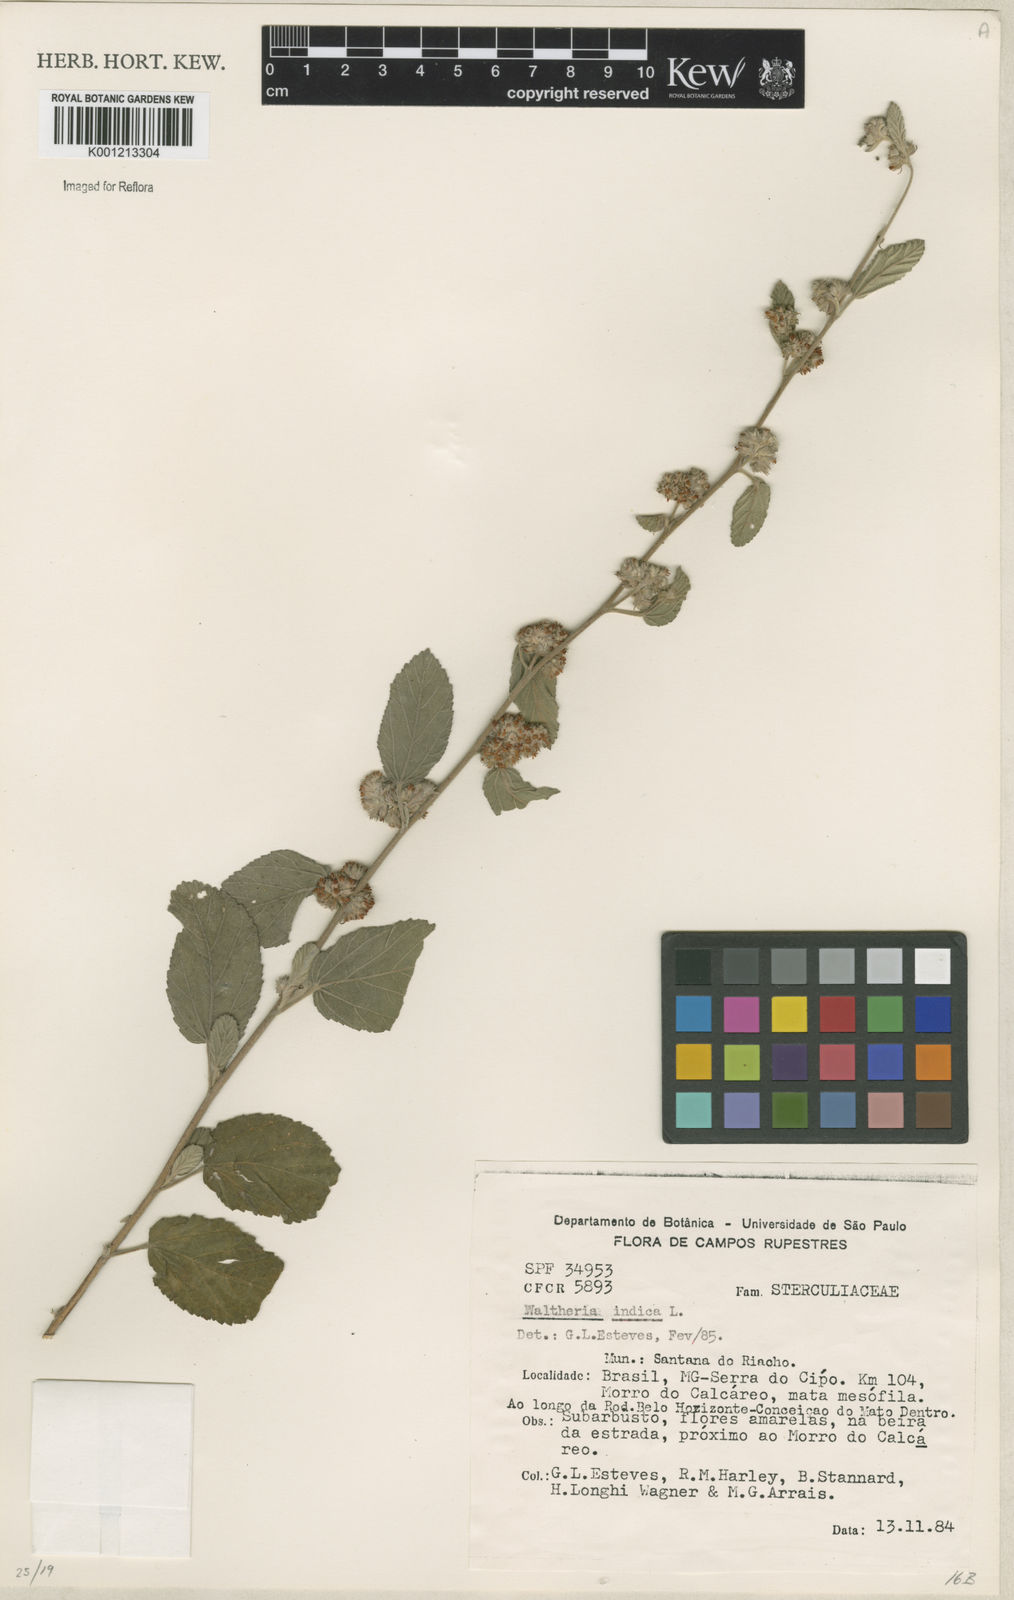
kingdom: Plantae
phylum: Tracheophyta
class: Magnoliopsida
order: Malvales
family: Malvaceae
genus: Waltheria
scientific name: Waltheria indica
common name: Leather-coat
